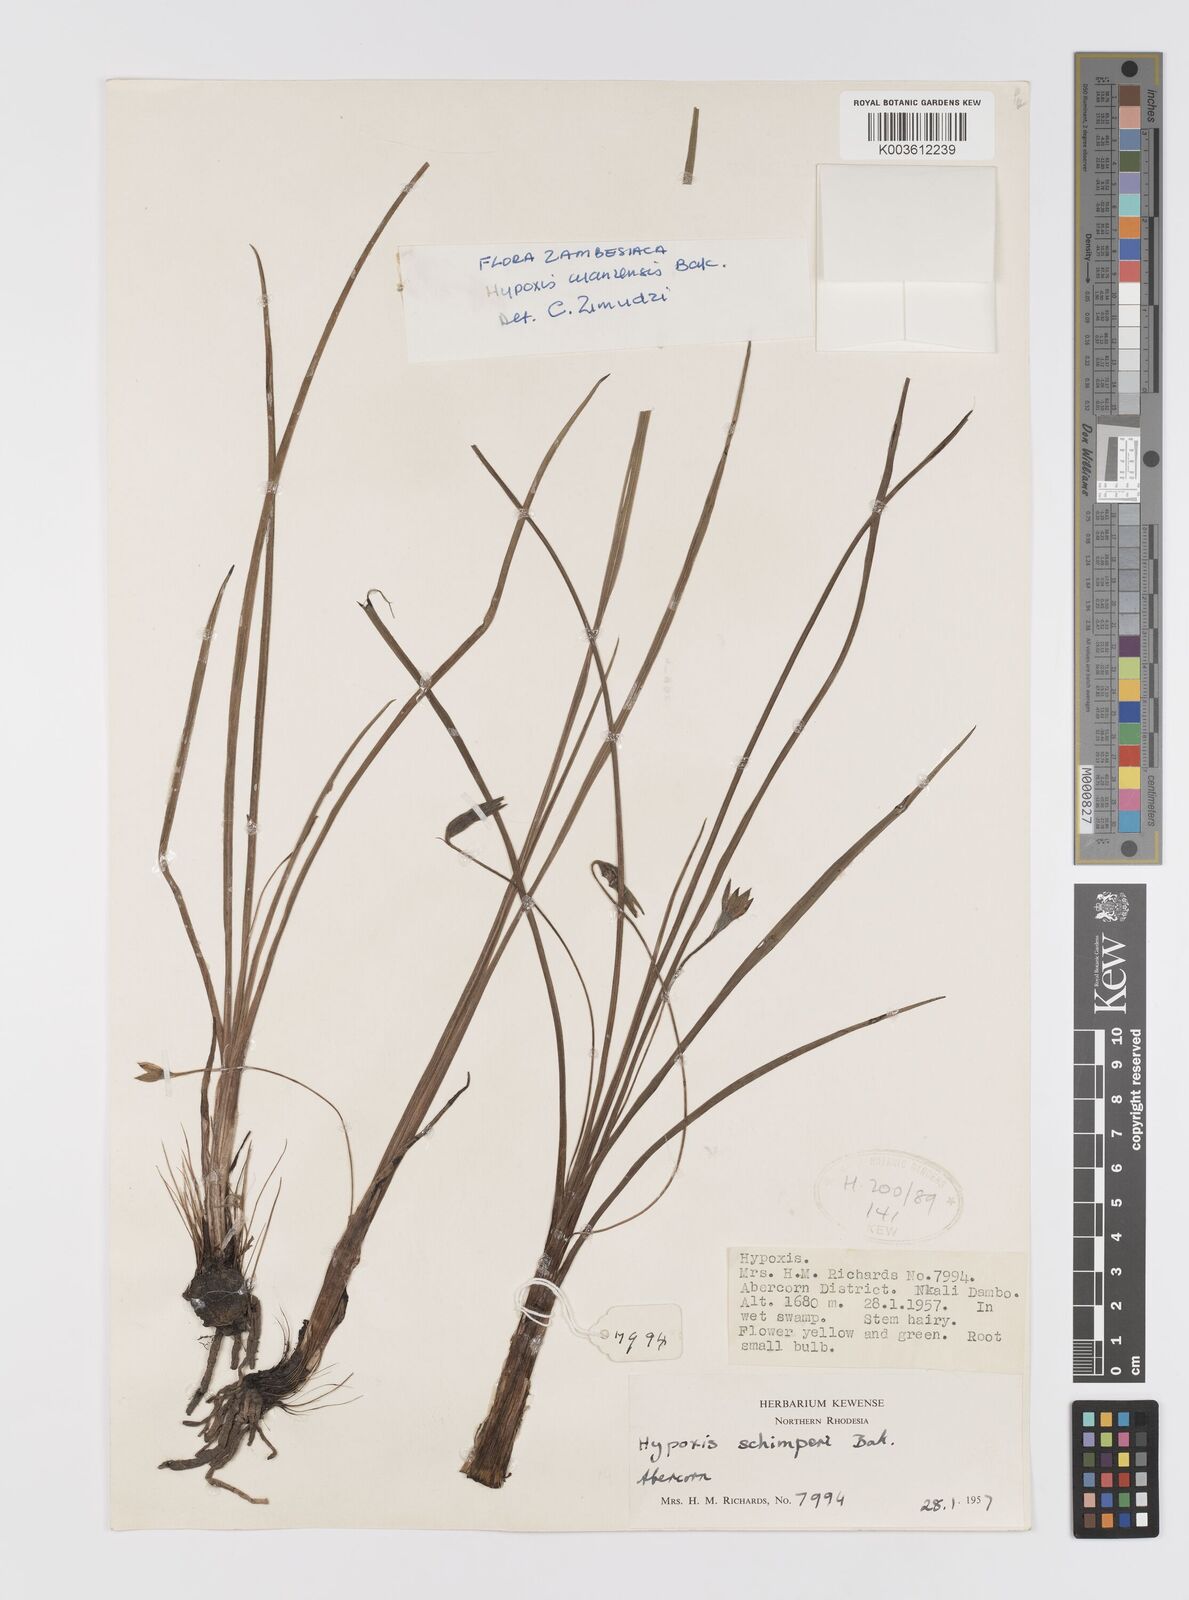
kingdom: Plantae
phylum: Tracheophyta
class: Liliopsida
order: Asparagales
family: Hypoxidaceae
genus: Hypoxis
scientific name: Hypoxis cuanzensis
